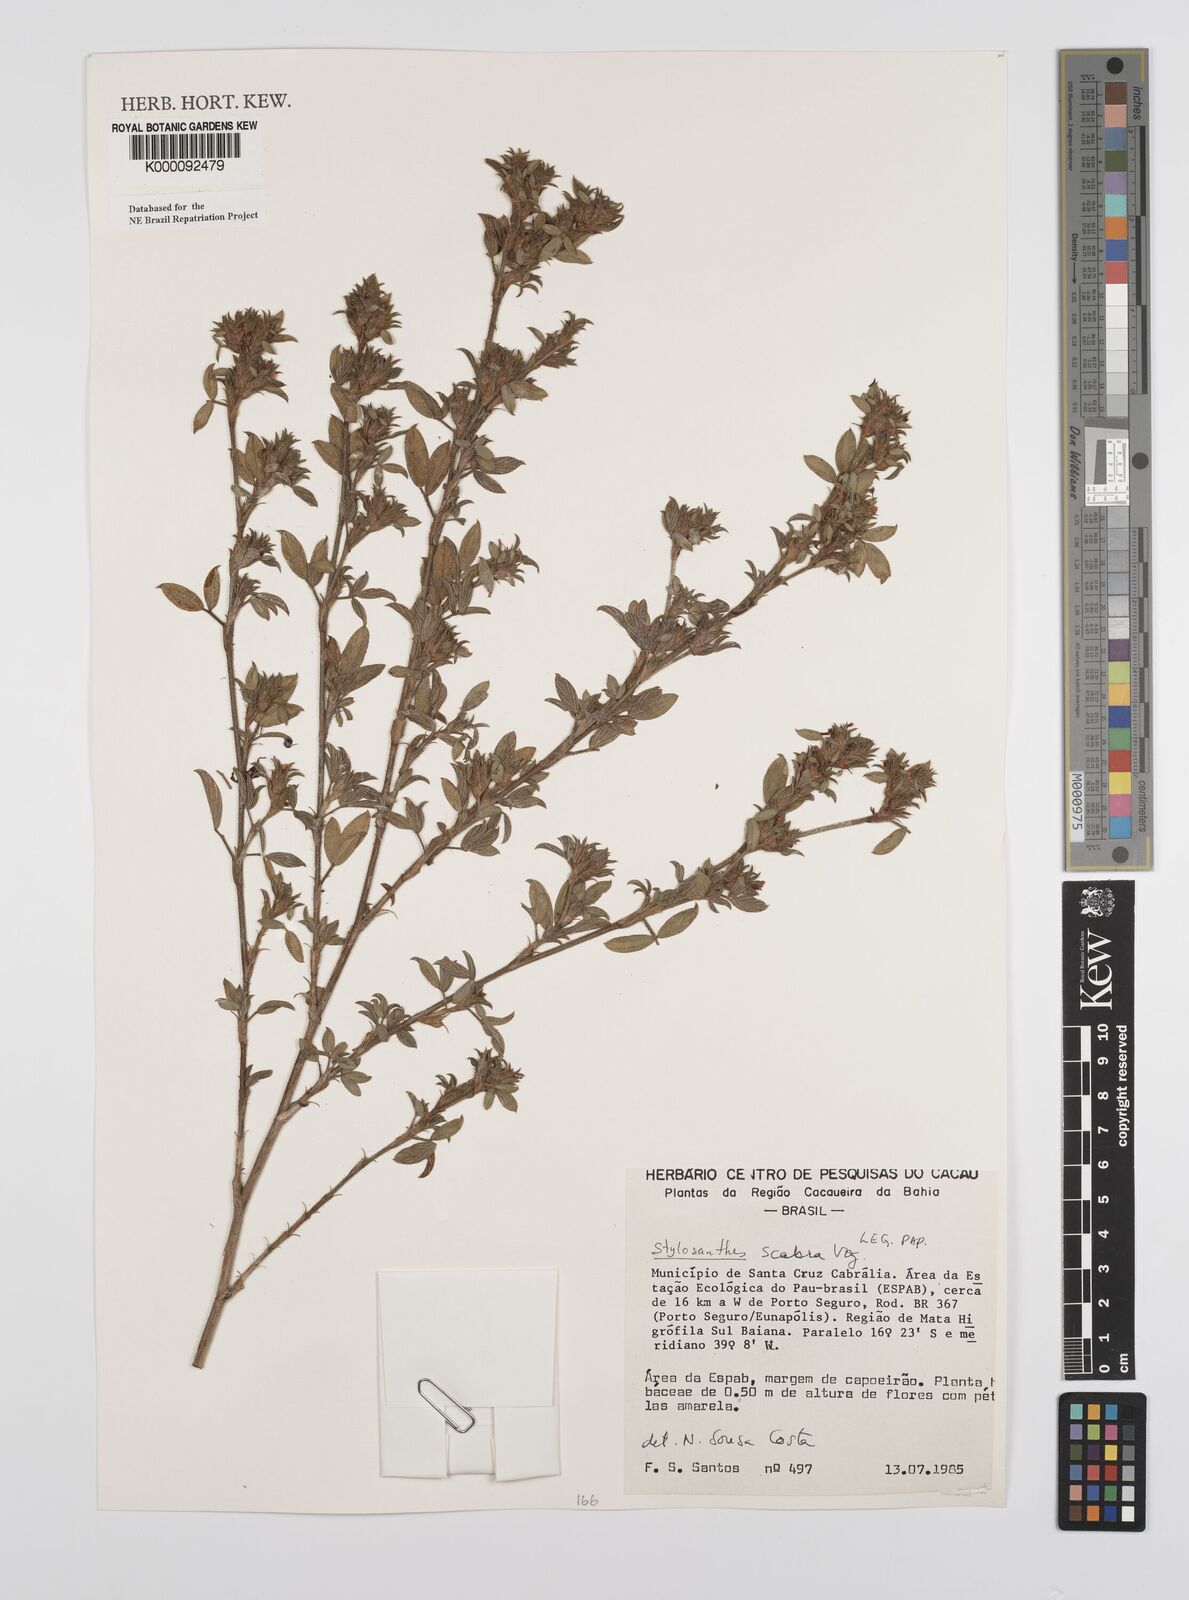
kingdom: Plantae
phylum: Tracheophyta
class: Magnoliopsida
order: Fabales
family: Fabaceae
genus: Stylosanthes
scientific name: Stylosanthes scabra
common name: Pencilflower
